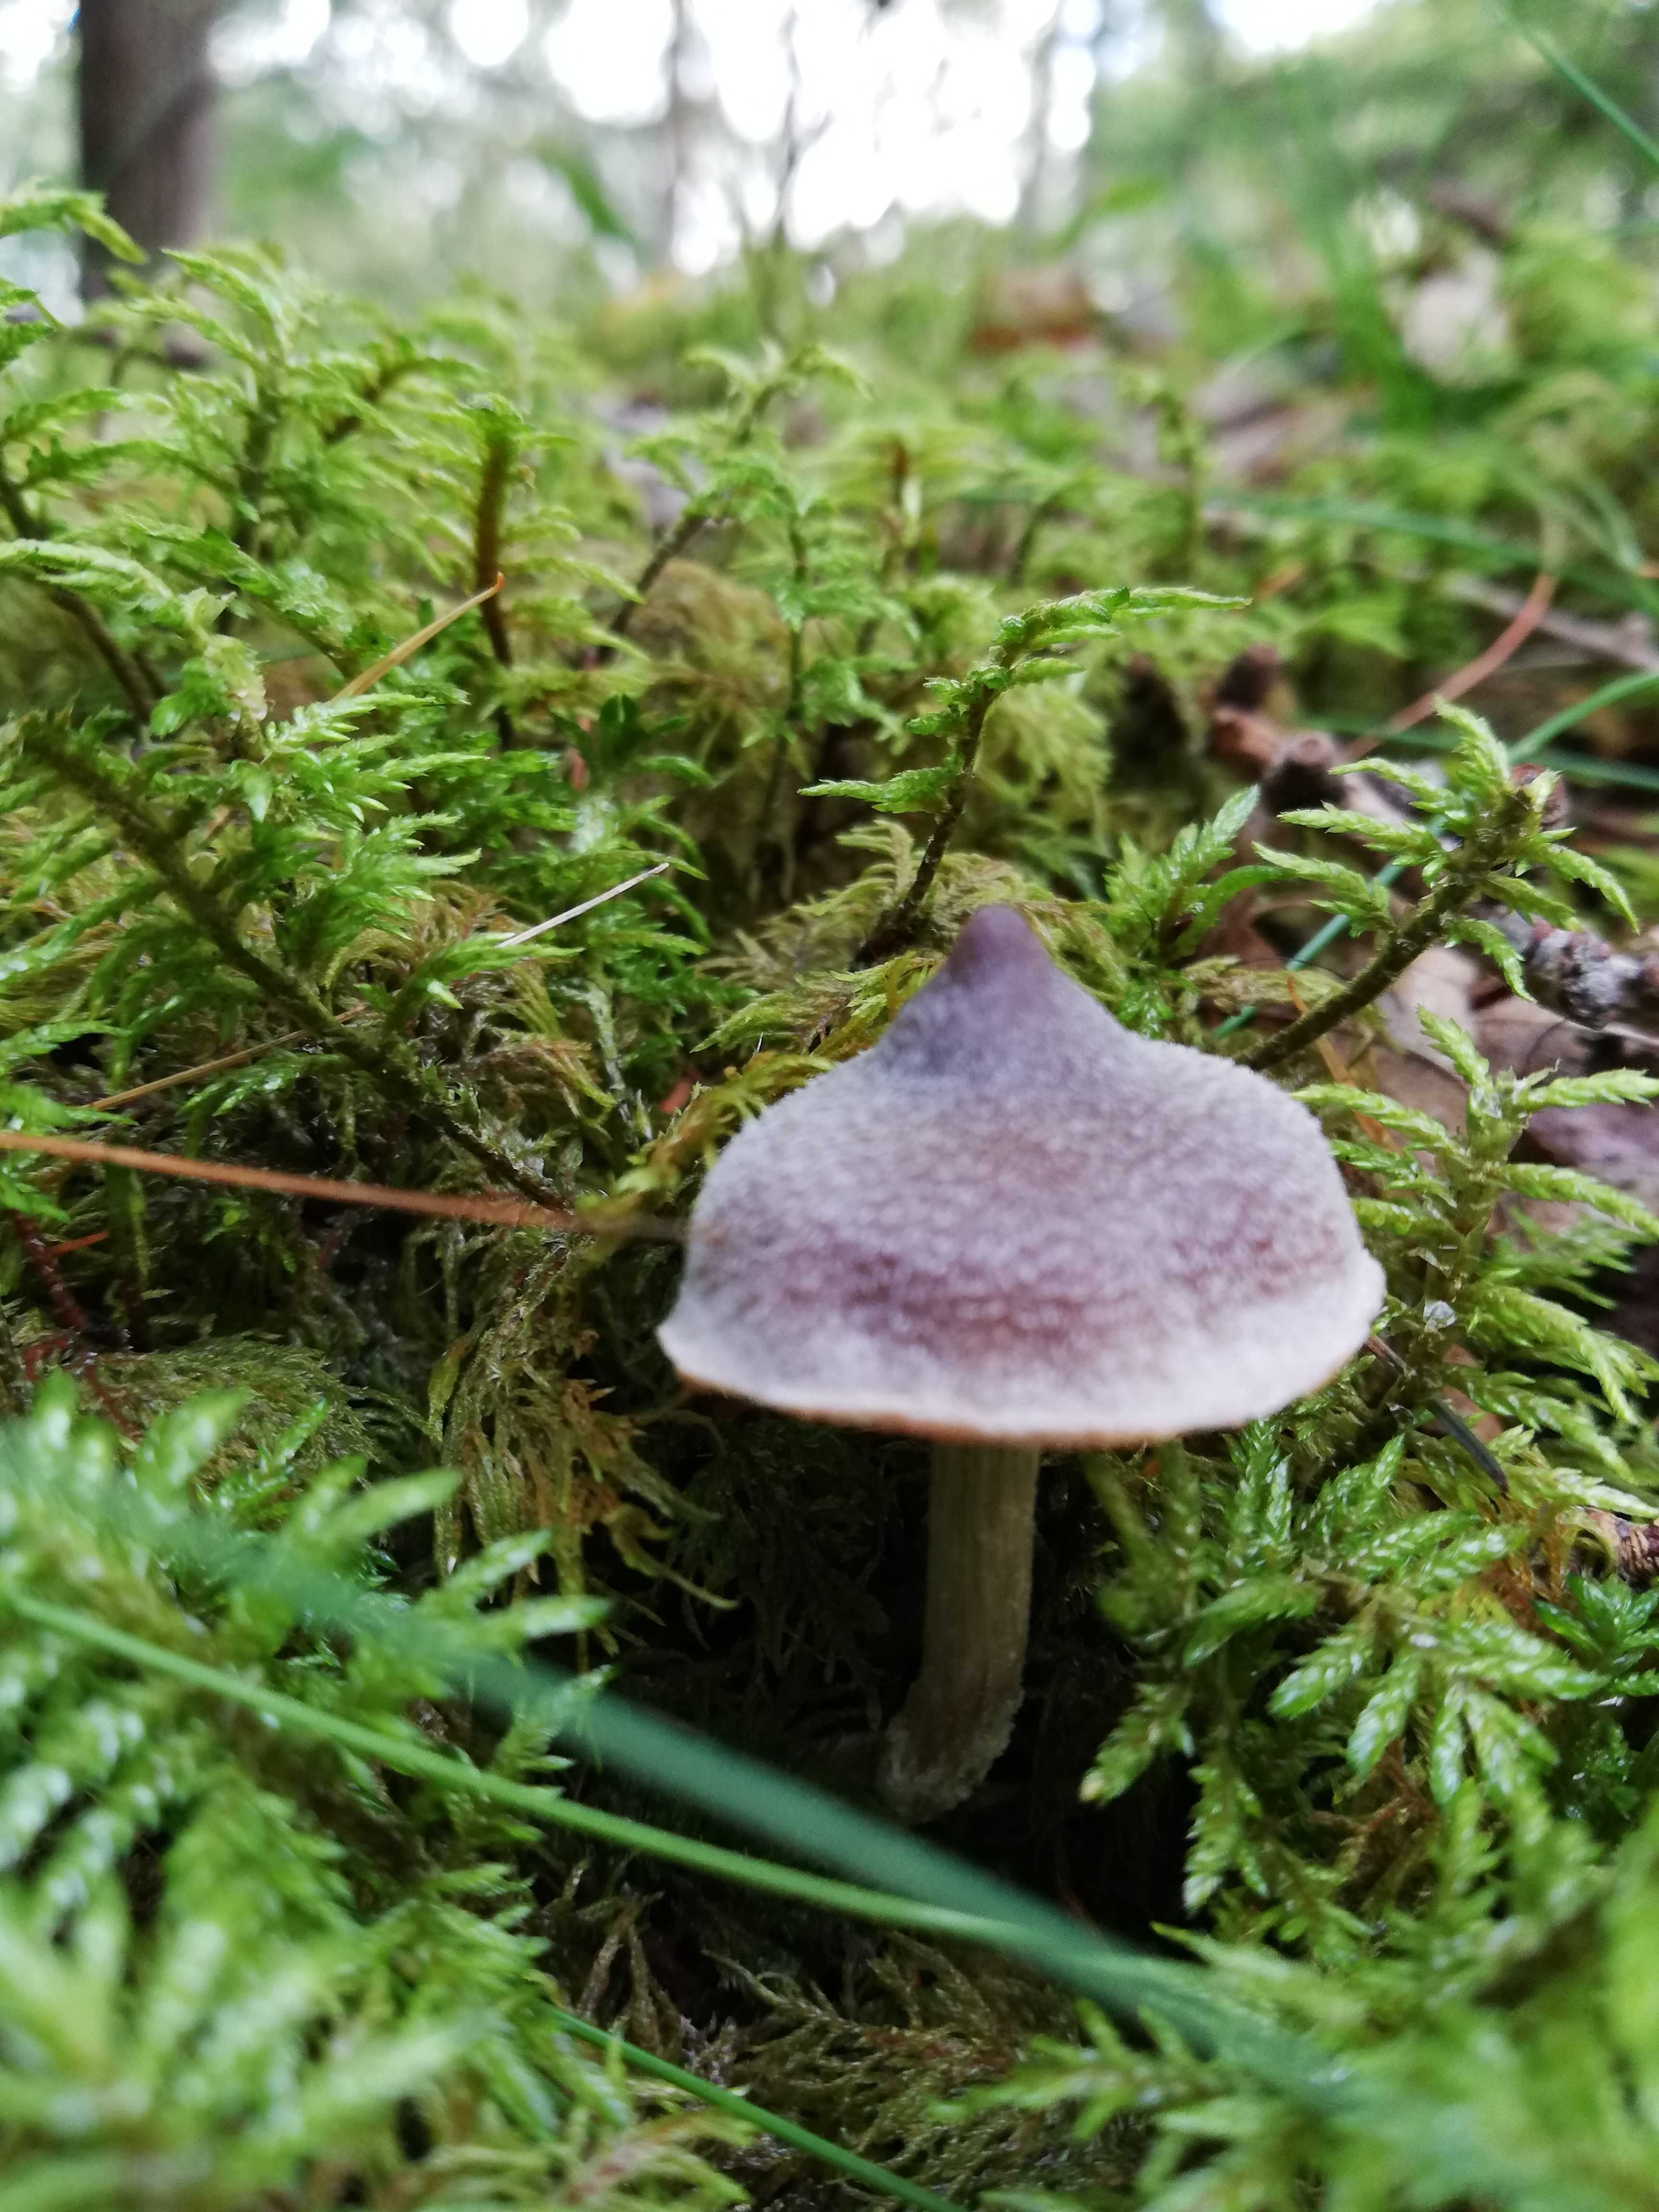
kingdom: Fungi
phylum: Basidiomycota
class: Agaricomycetes
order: Agaricales
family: Cortinariaceae
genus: Cortinarius
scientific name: Cortinarius
